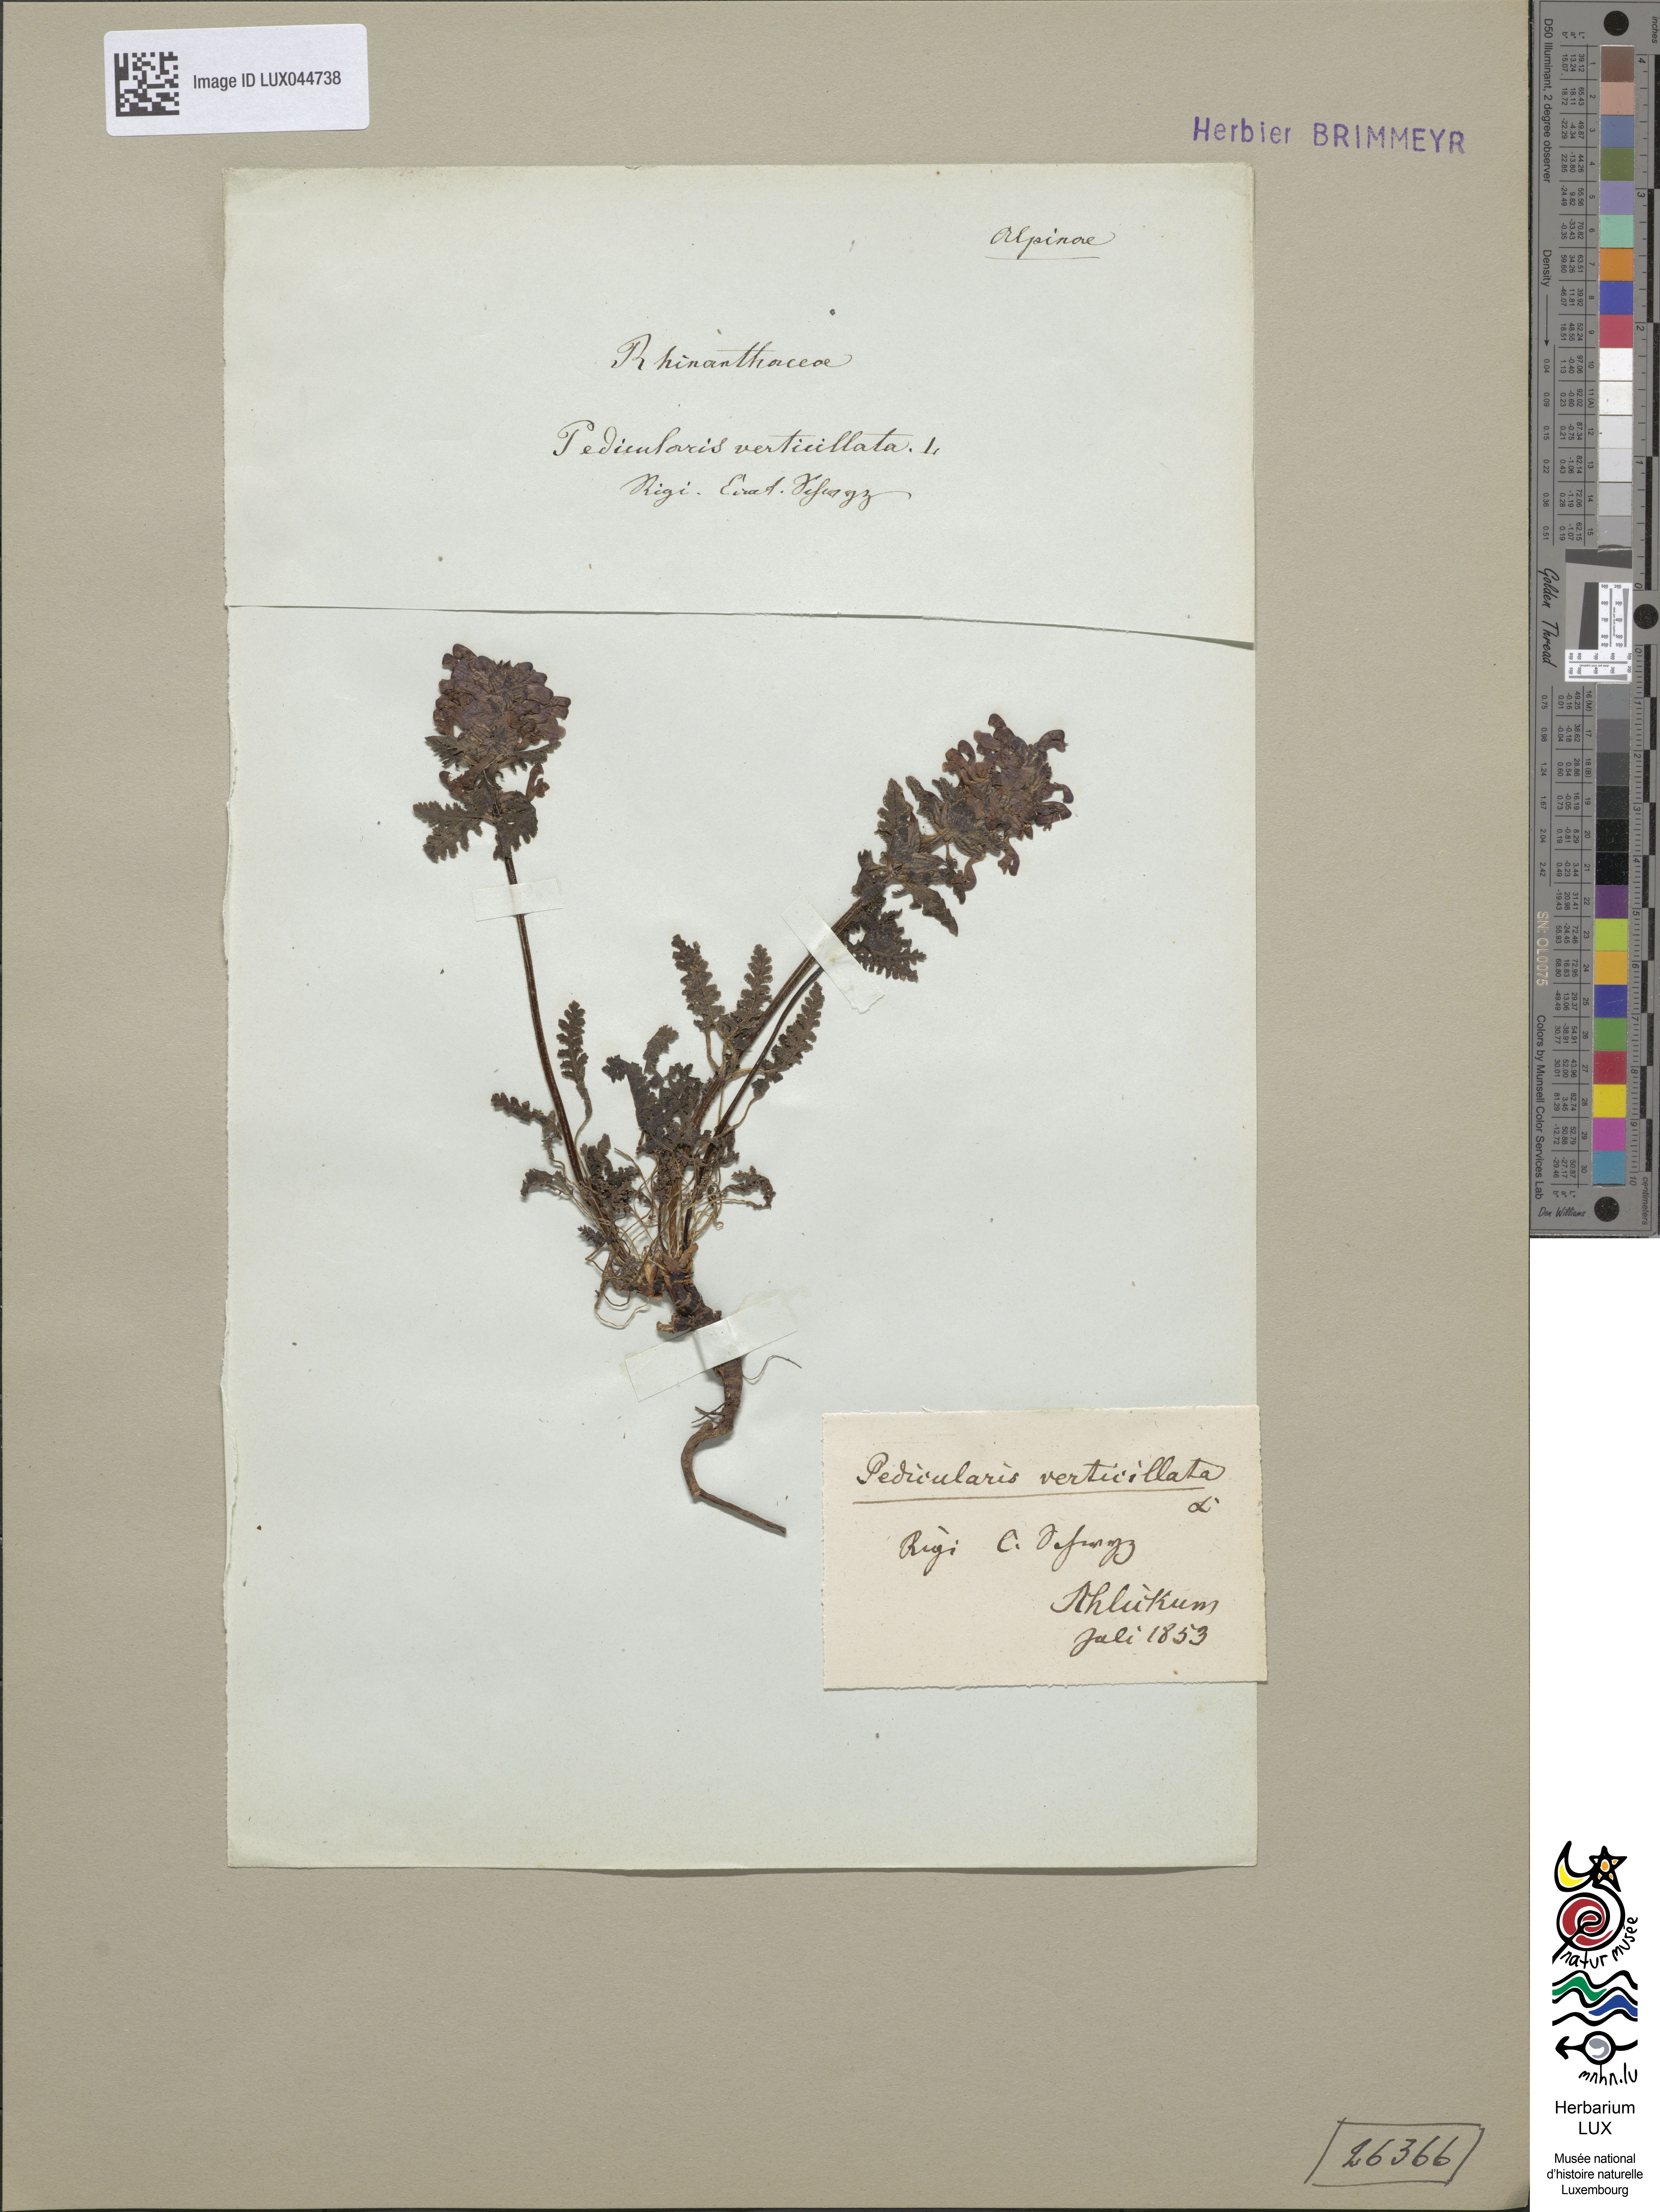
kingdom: Plantae
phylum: Tracheophyta
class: Magnoliopsida
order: Lamiales
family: Orobanchaceae
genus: Pedicularis
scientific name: Pedicularis verticillata
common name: Whorled lousewort
